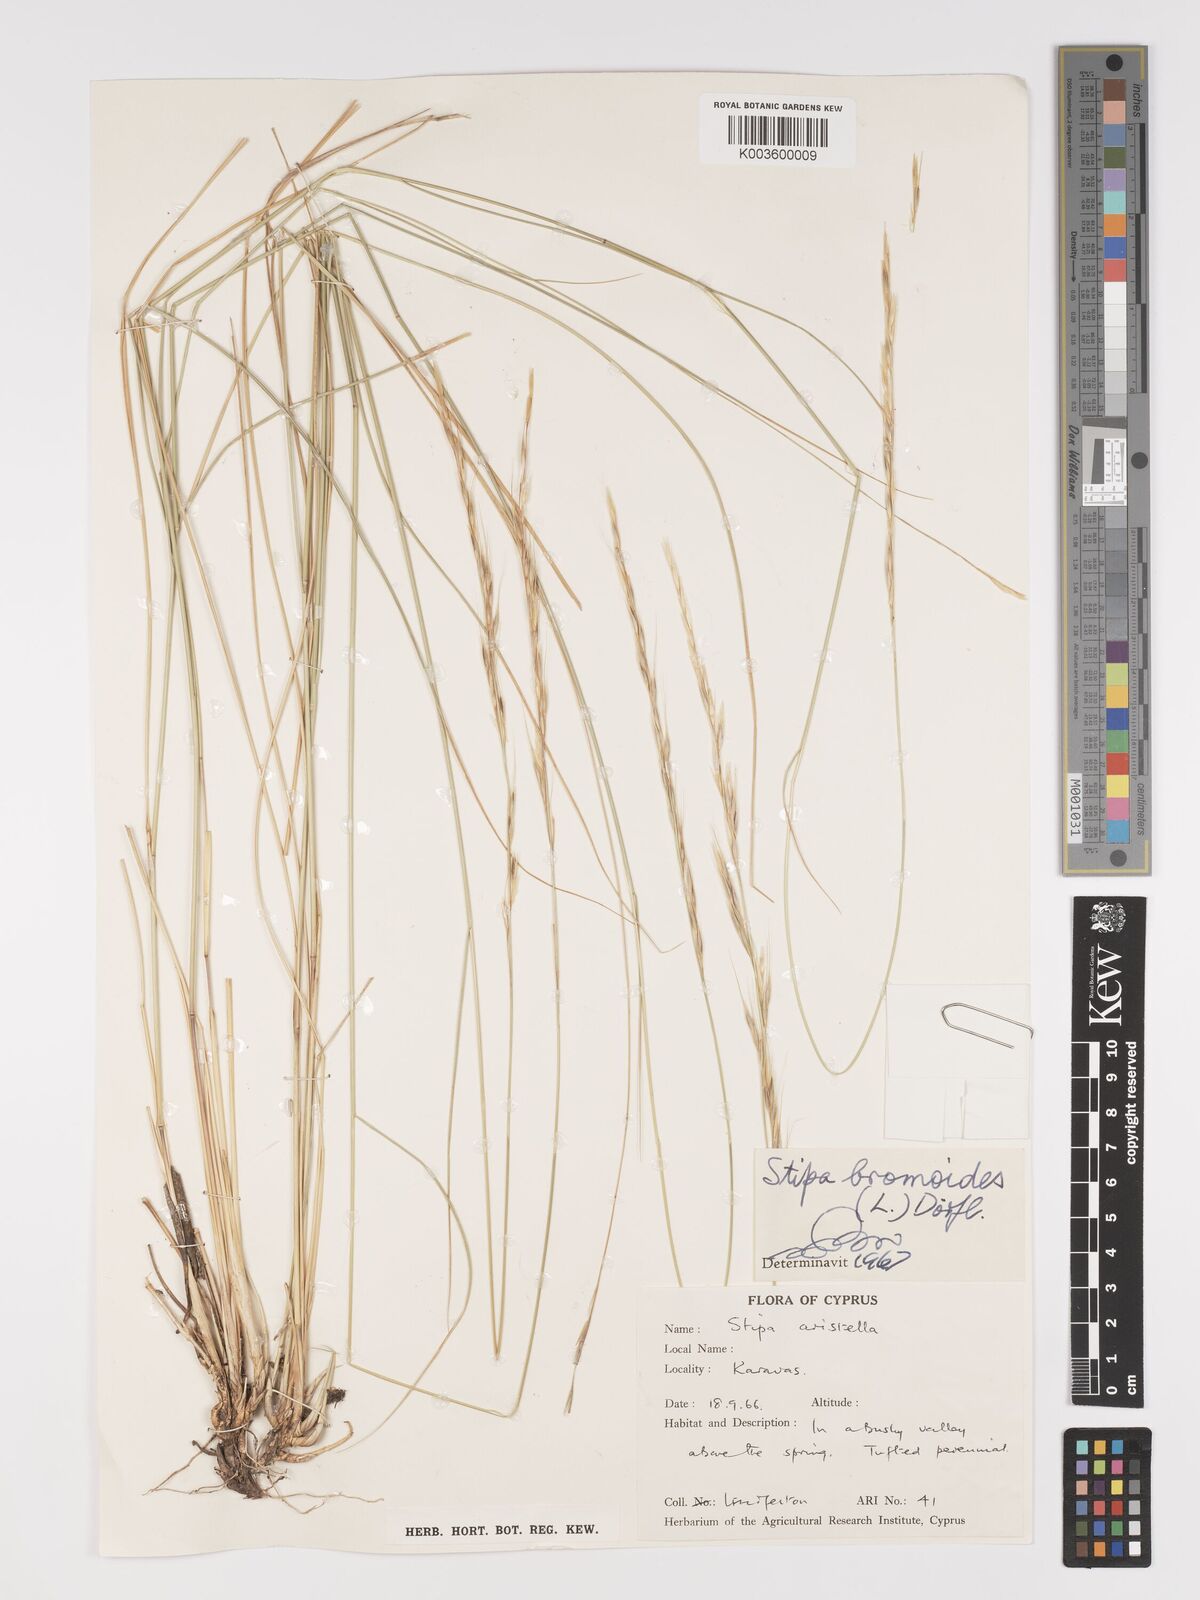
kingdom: Plantae
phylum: Tracheophyta
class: Liliopsida
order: Poales
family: Poaceae
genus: Achnatherum
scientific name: Achnatherum bromoides
